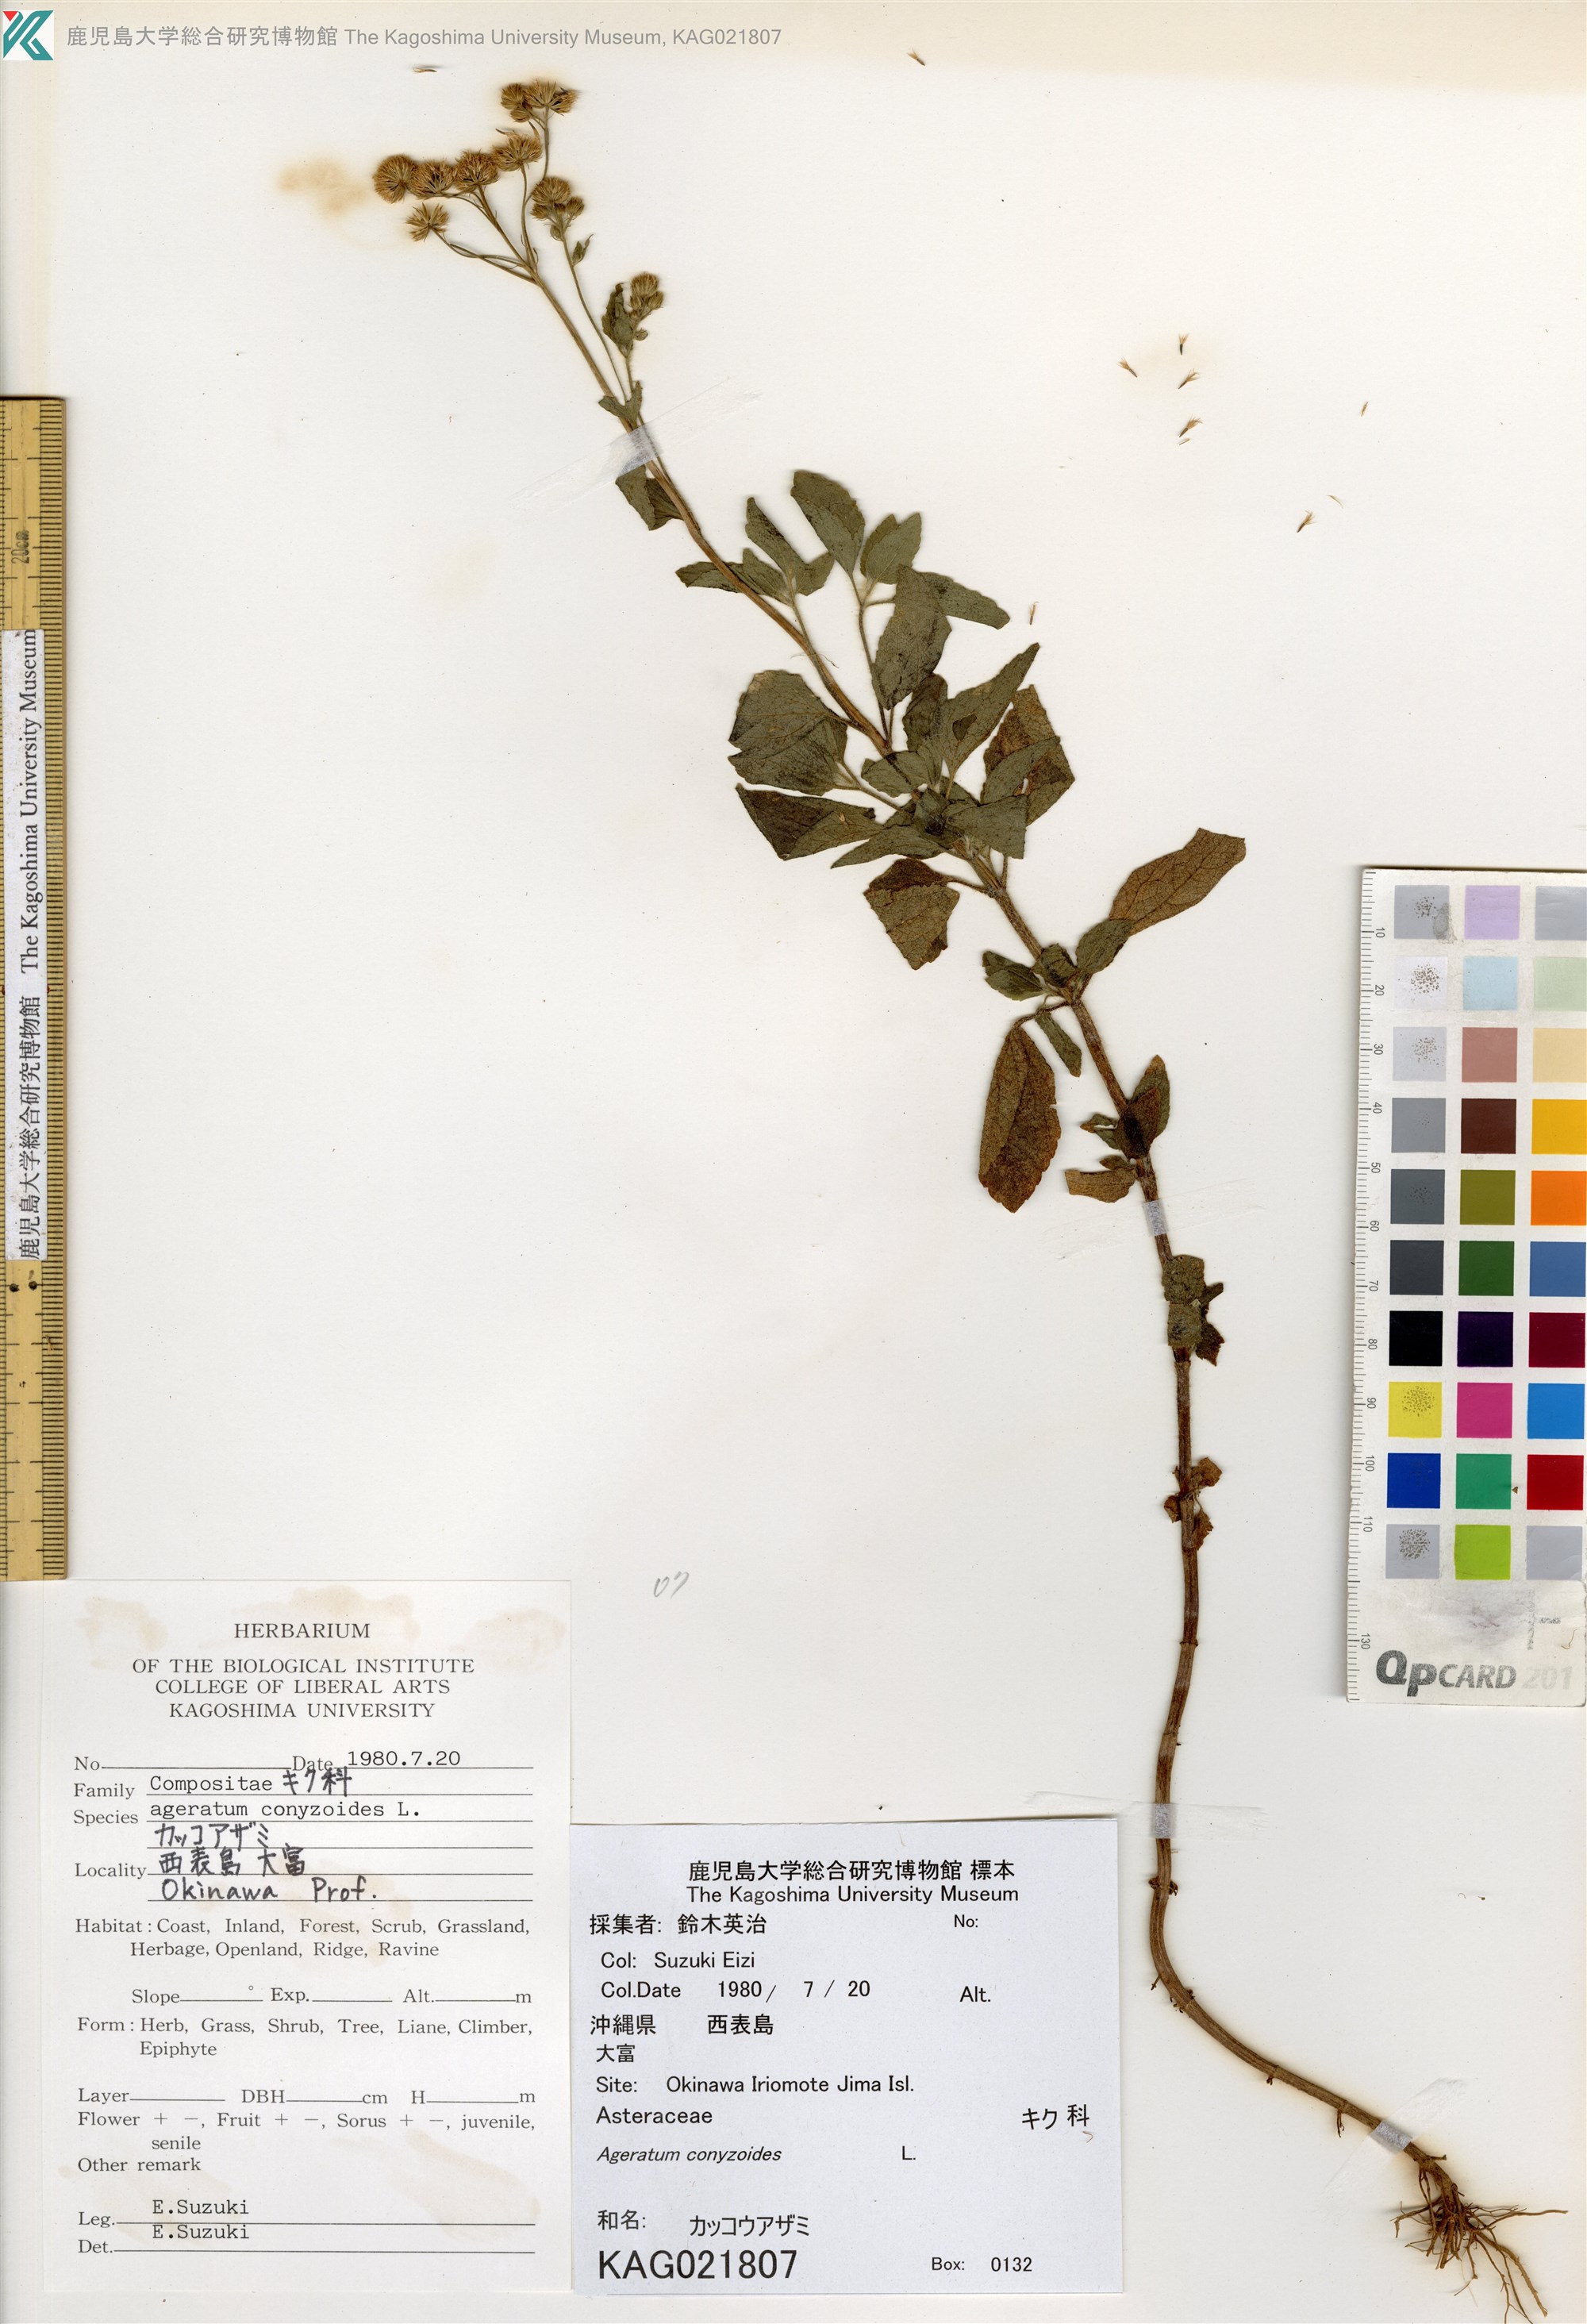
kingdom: Plantae
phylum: Tracheophyta
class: Magnoliopsida
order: Asterales
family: Asteraceae
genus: Ageratum
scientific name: Ageratum conyzoides
